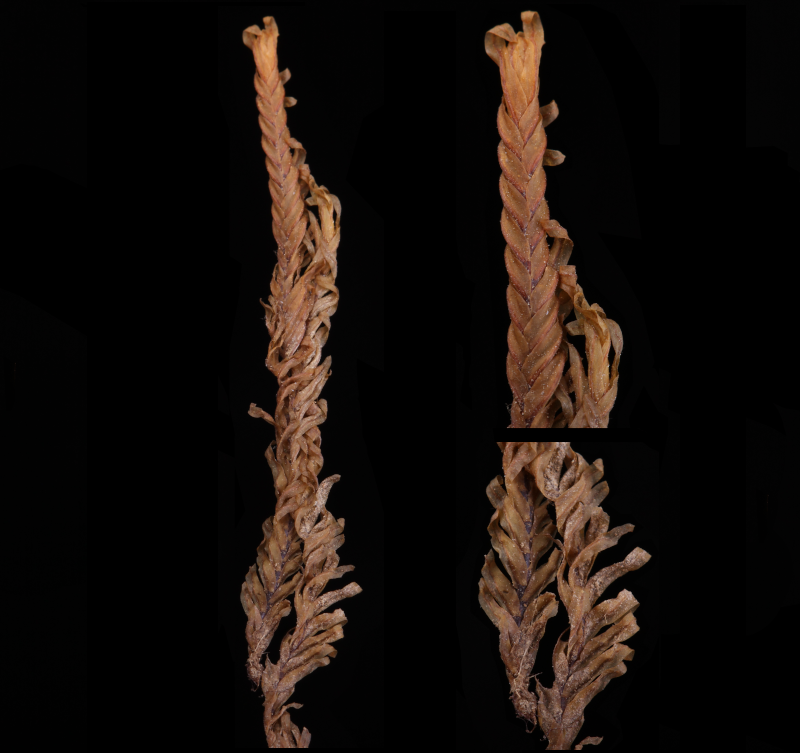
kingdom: Plantae
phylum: Bryophyta
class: Bryopsida
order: Dicranales
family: Fissidentaceae
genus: Fissidens
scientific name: Fissidens polypodioides
